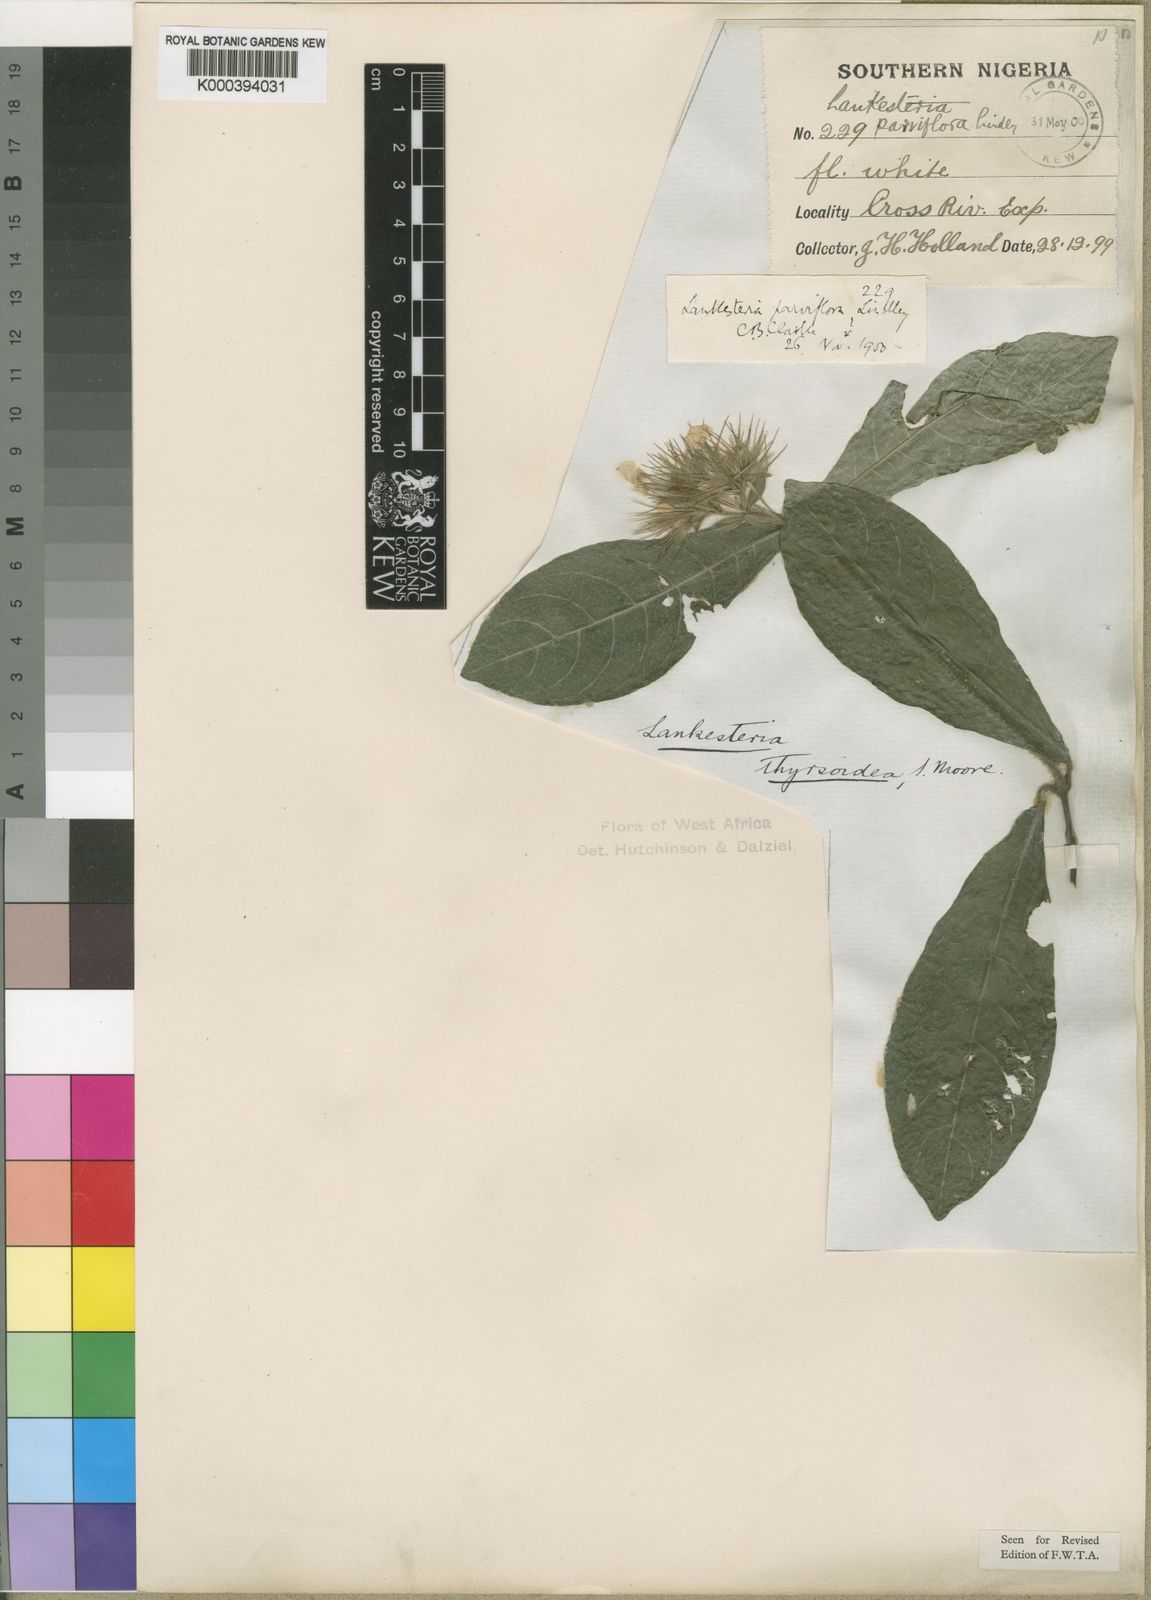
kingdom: Plantae
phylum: Tracheophyta
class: Magnoliopsida
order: Lamiales
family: Acanthaceae
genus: Lankesteria
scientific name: Lankesteria thyrsoidea
